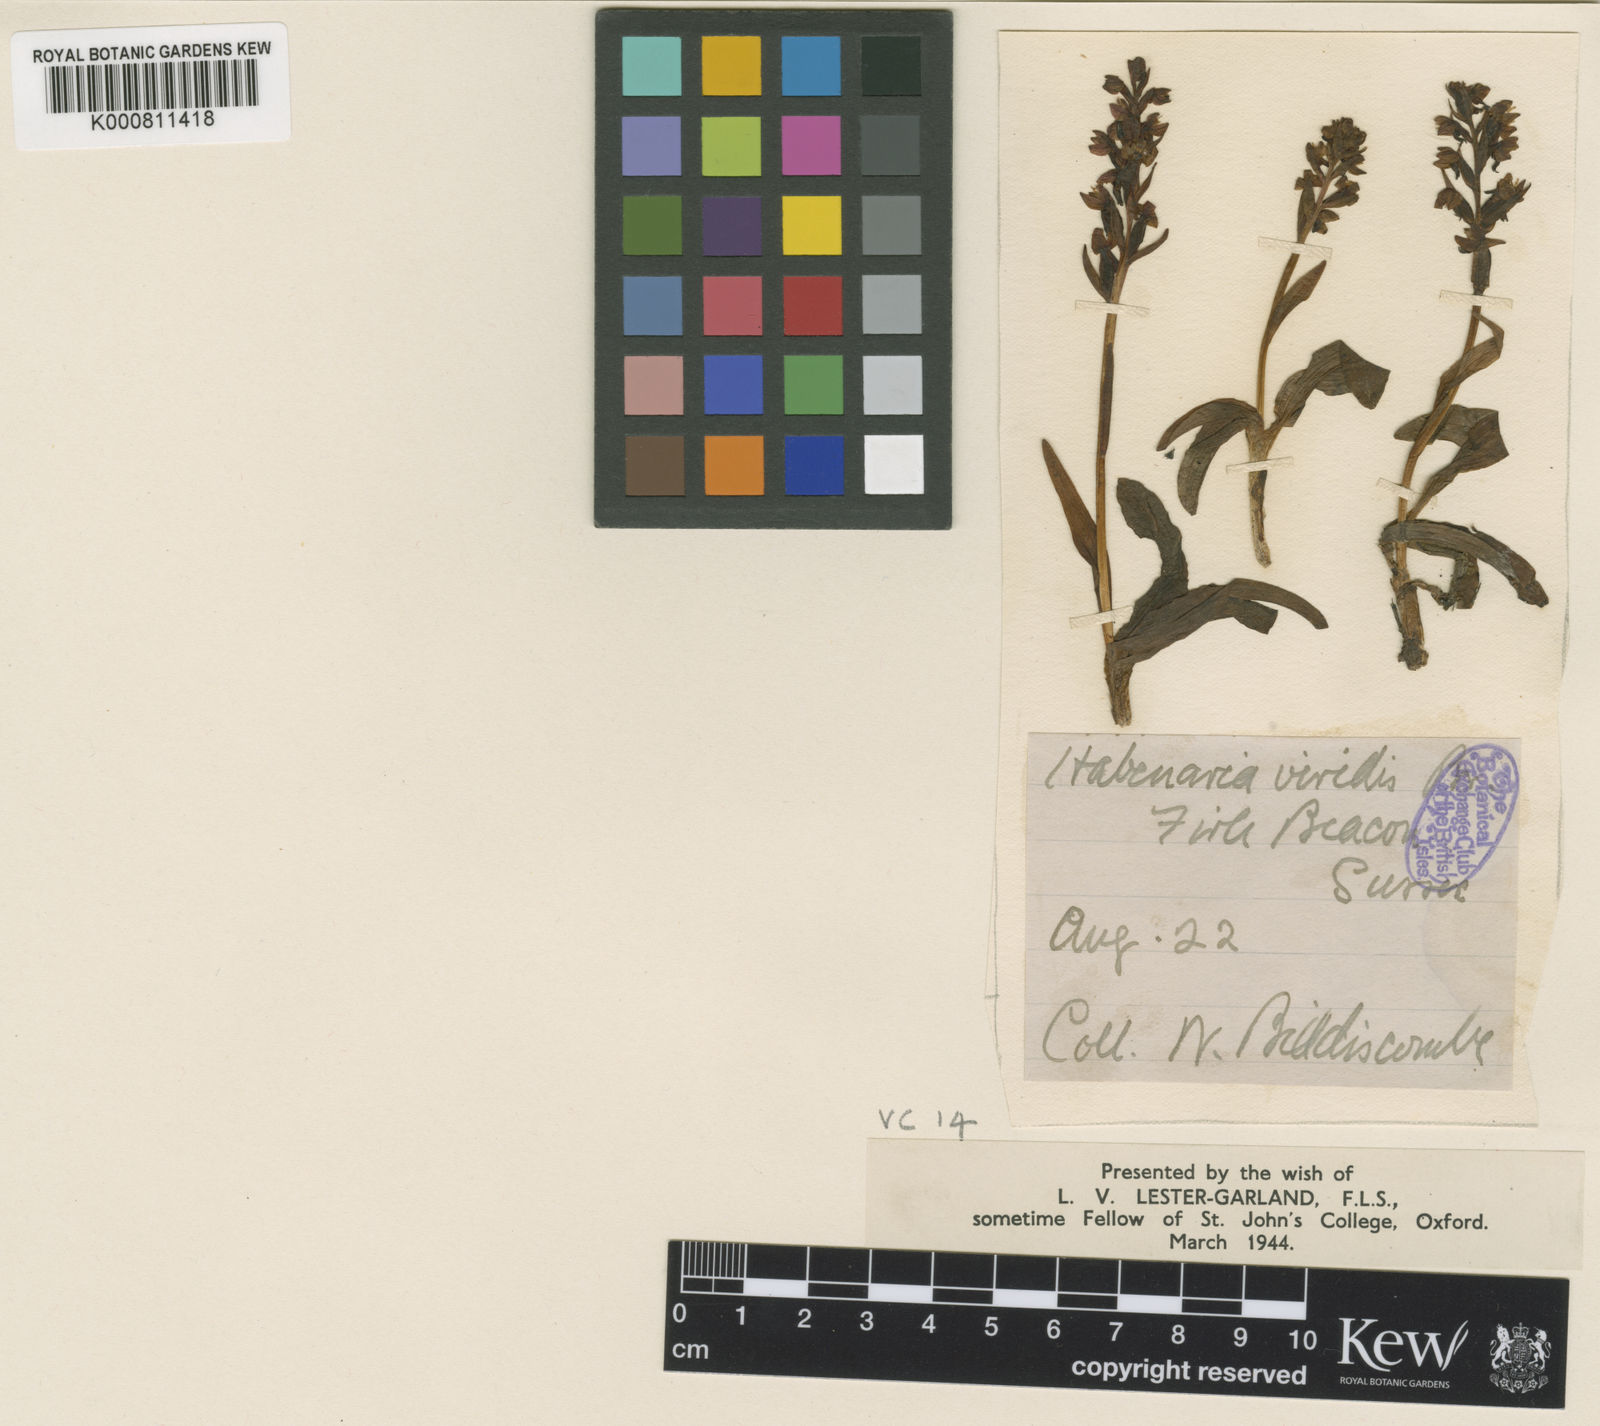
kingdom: Plantae
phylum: Tracheophyta
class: Liliopsida
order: Asparagales
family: Orchidaceae
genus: Dactylorhiza
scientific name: Dactylorhiza viridis
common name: Longbract frog orchid
